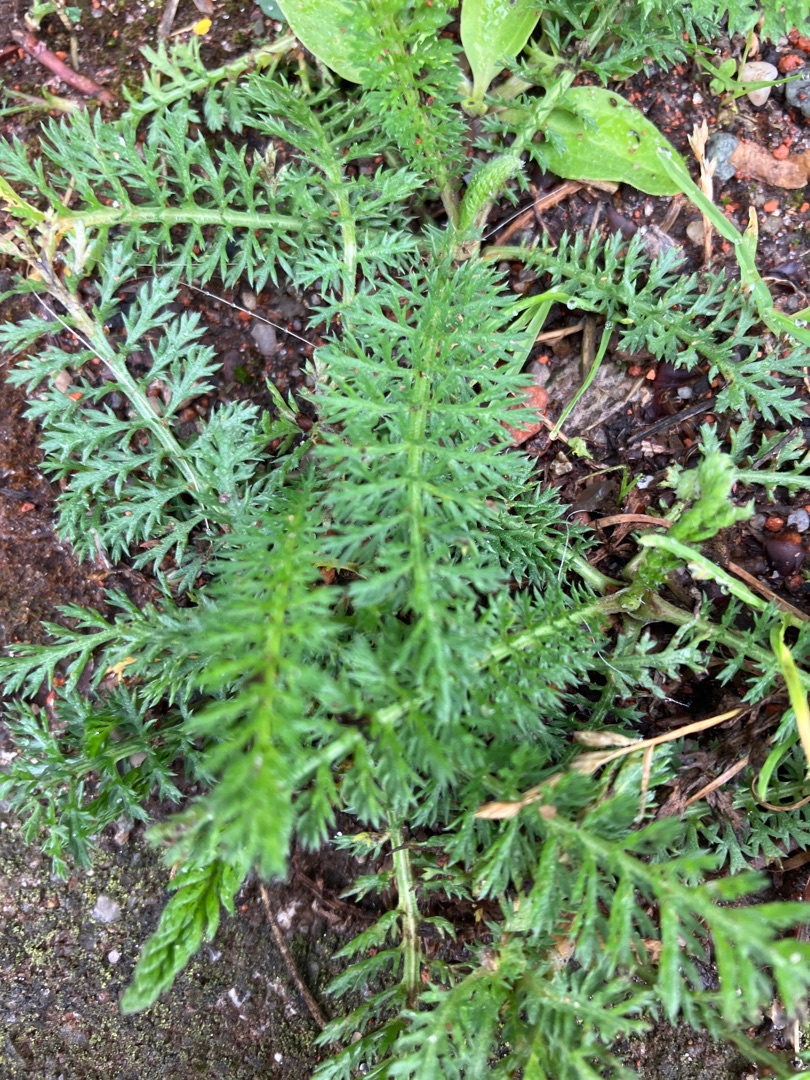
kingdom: Plantae
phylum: Tracheophyta
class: Magnoliopsida
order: Asterales
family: Asteraceae
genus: Achillea
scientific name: Achillea millefolium
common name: Almindelig røllike
